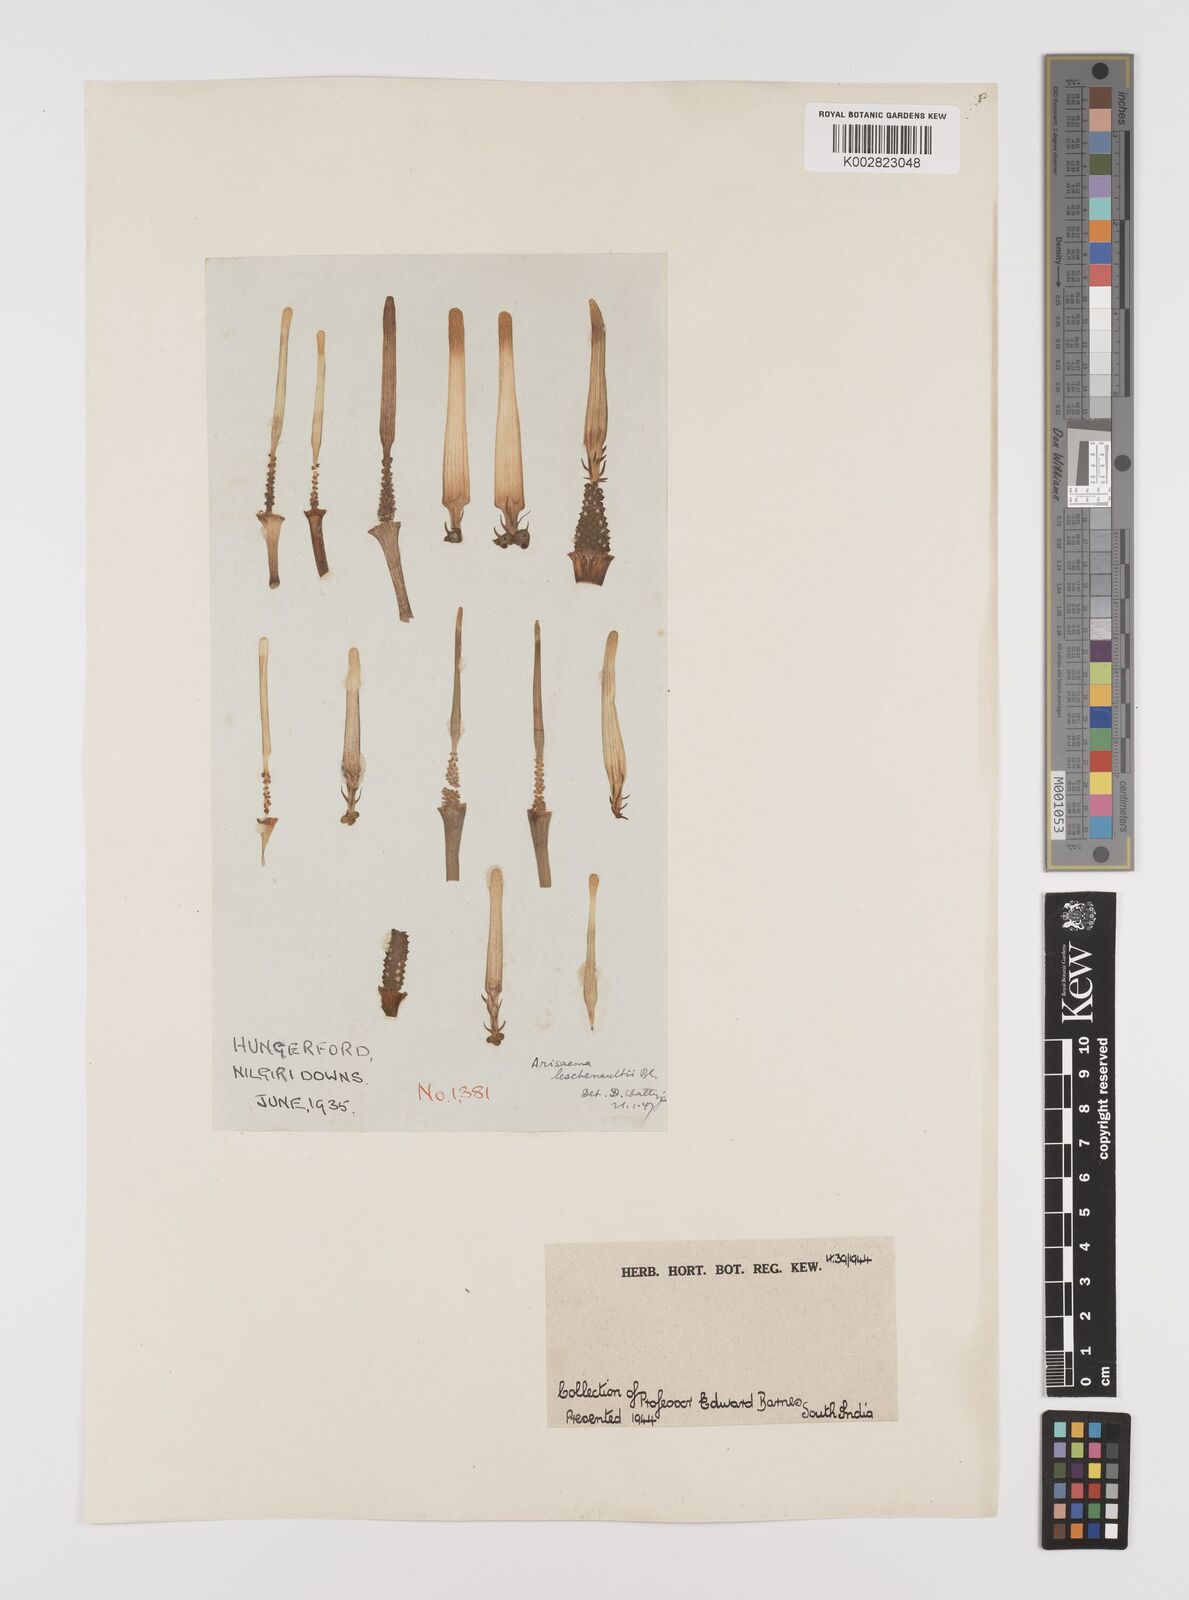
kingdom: Plantae
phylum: Tracheophyta
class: Liliopsida
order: Alismatales
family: Araceae
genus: Arisaema
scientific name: Arisaema leschenaultii
